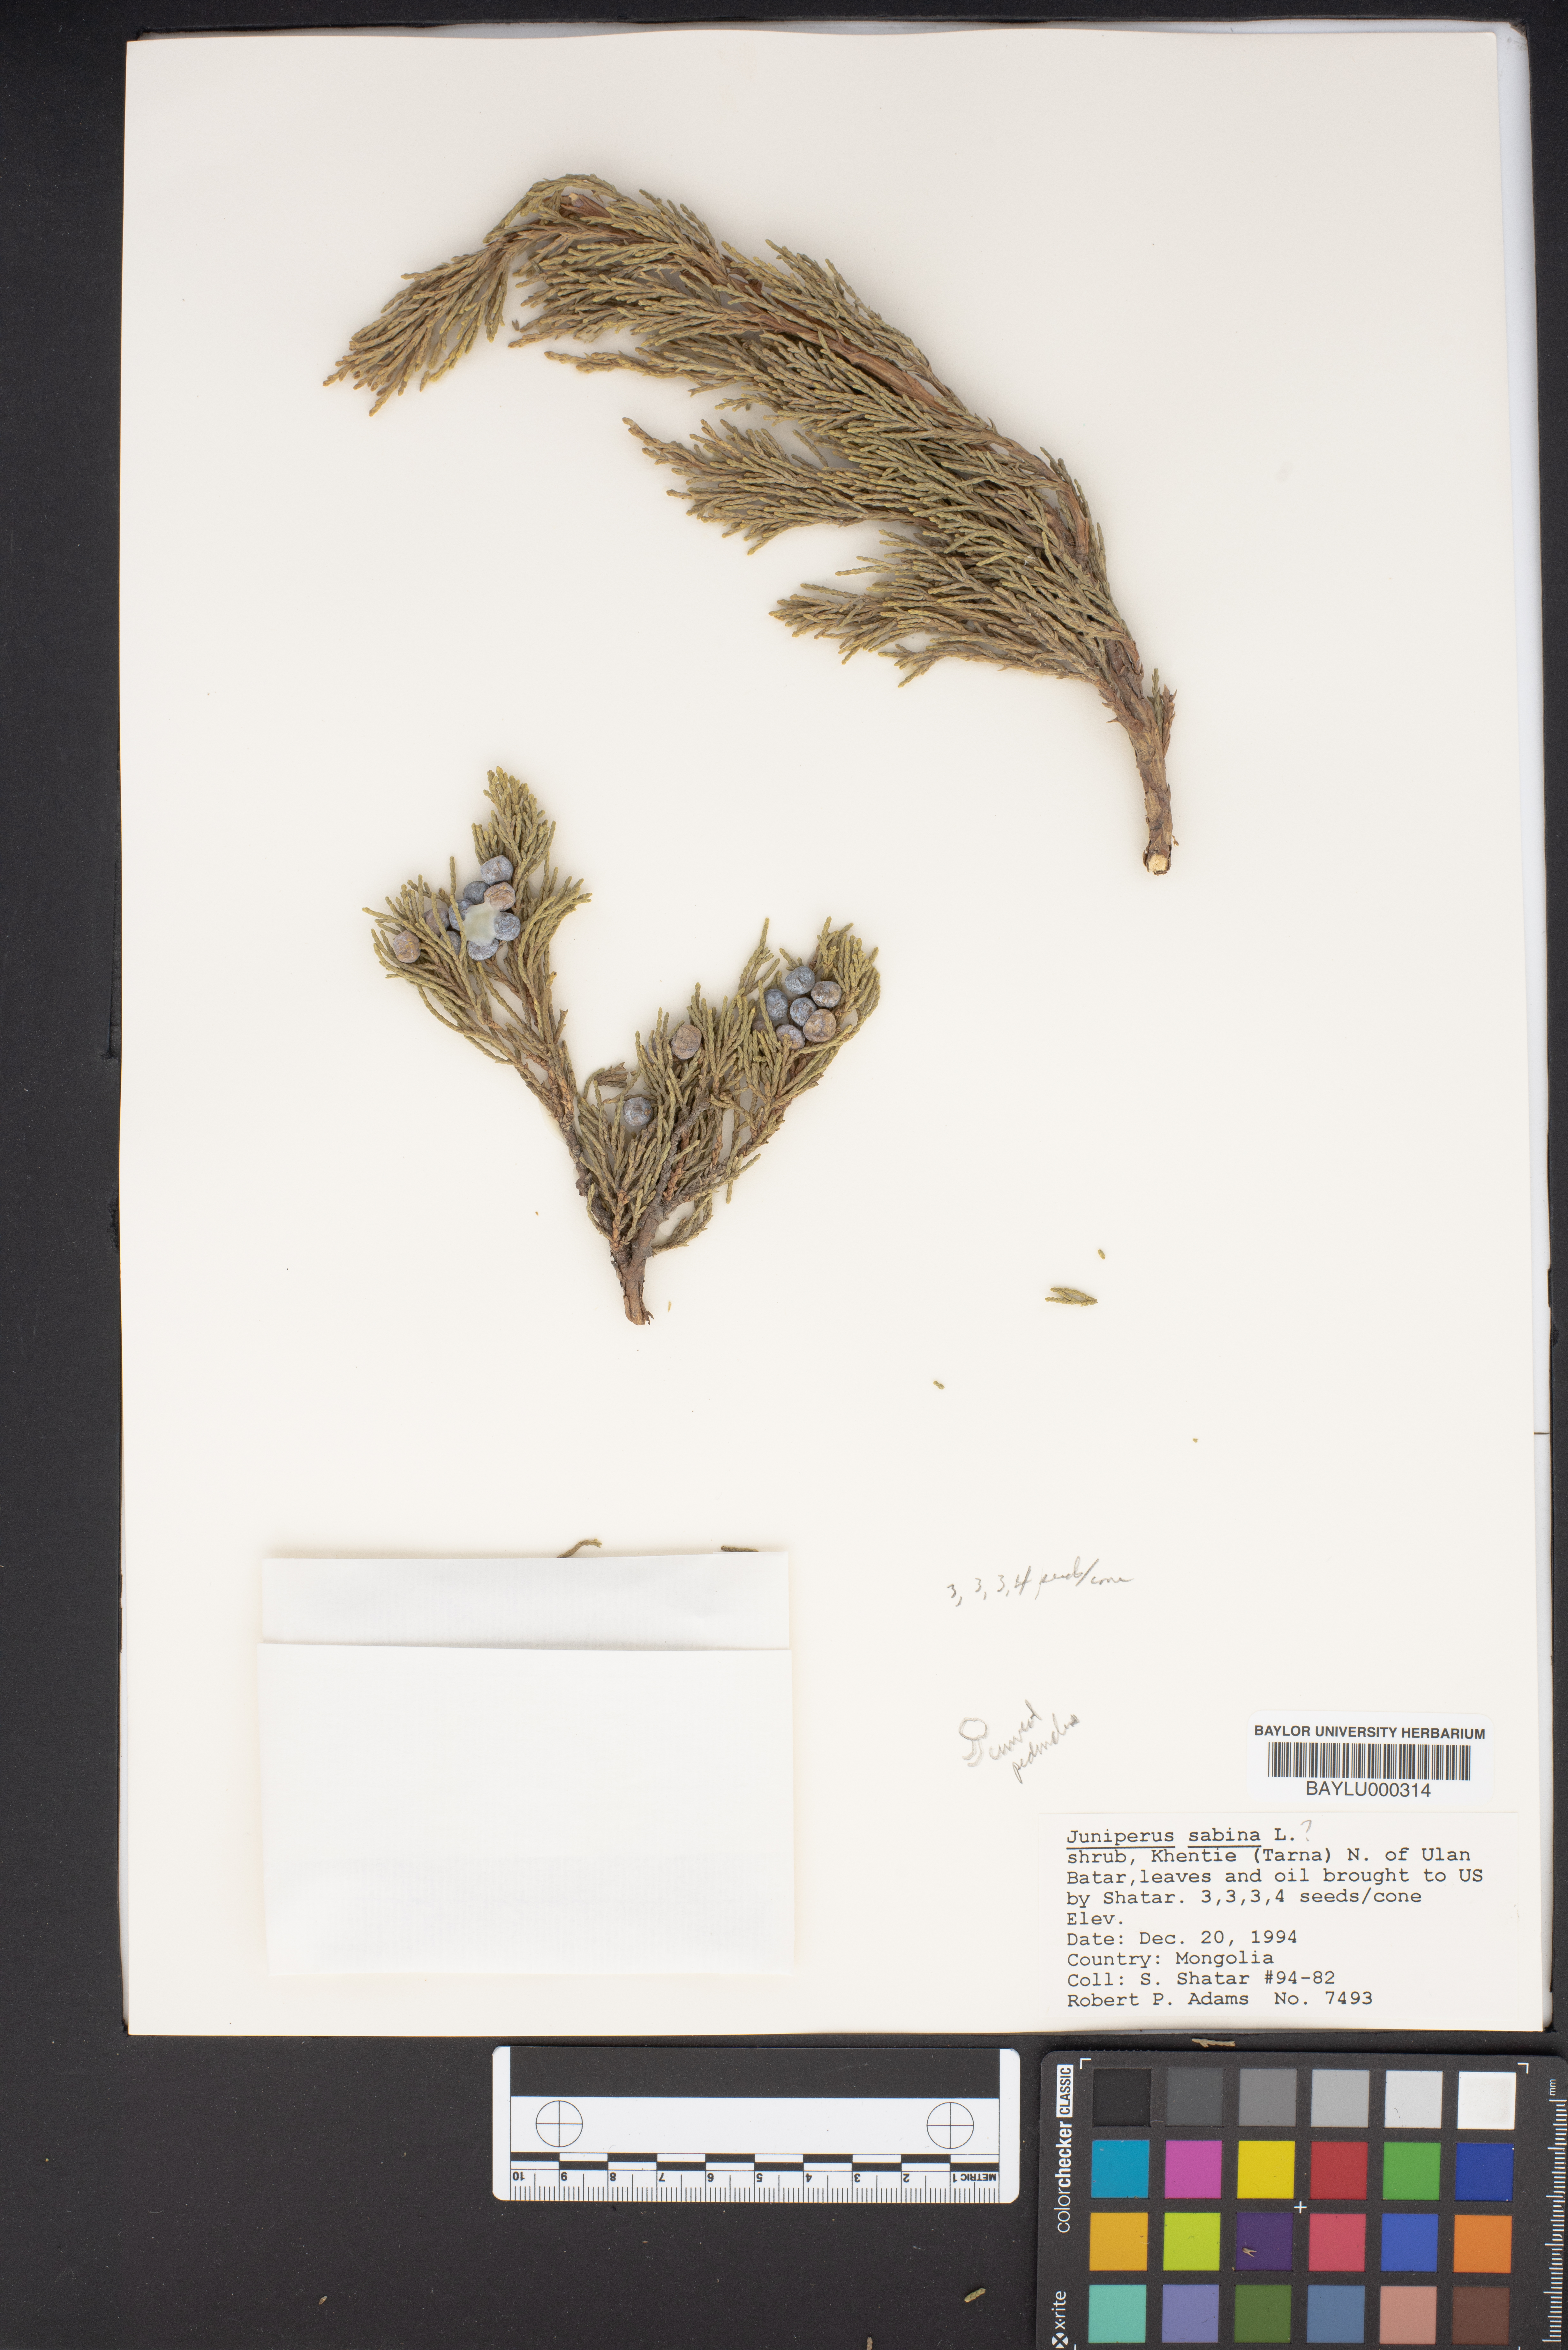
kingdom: Plantae
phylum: Tracheophyta
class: Pinopsida
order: Pinales
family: Cupressaceae
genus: Juniperus
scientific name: Juniperus sabina
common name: Savin
